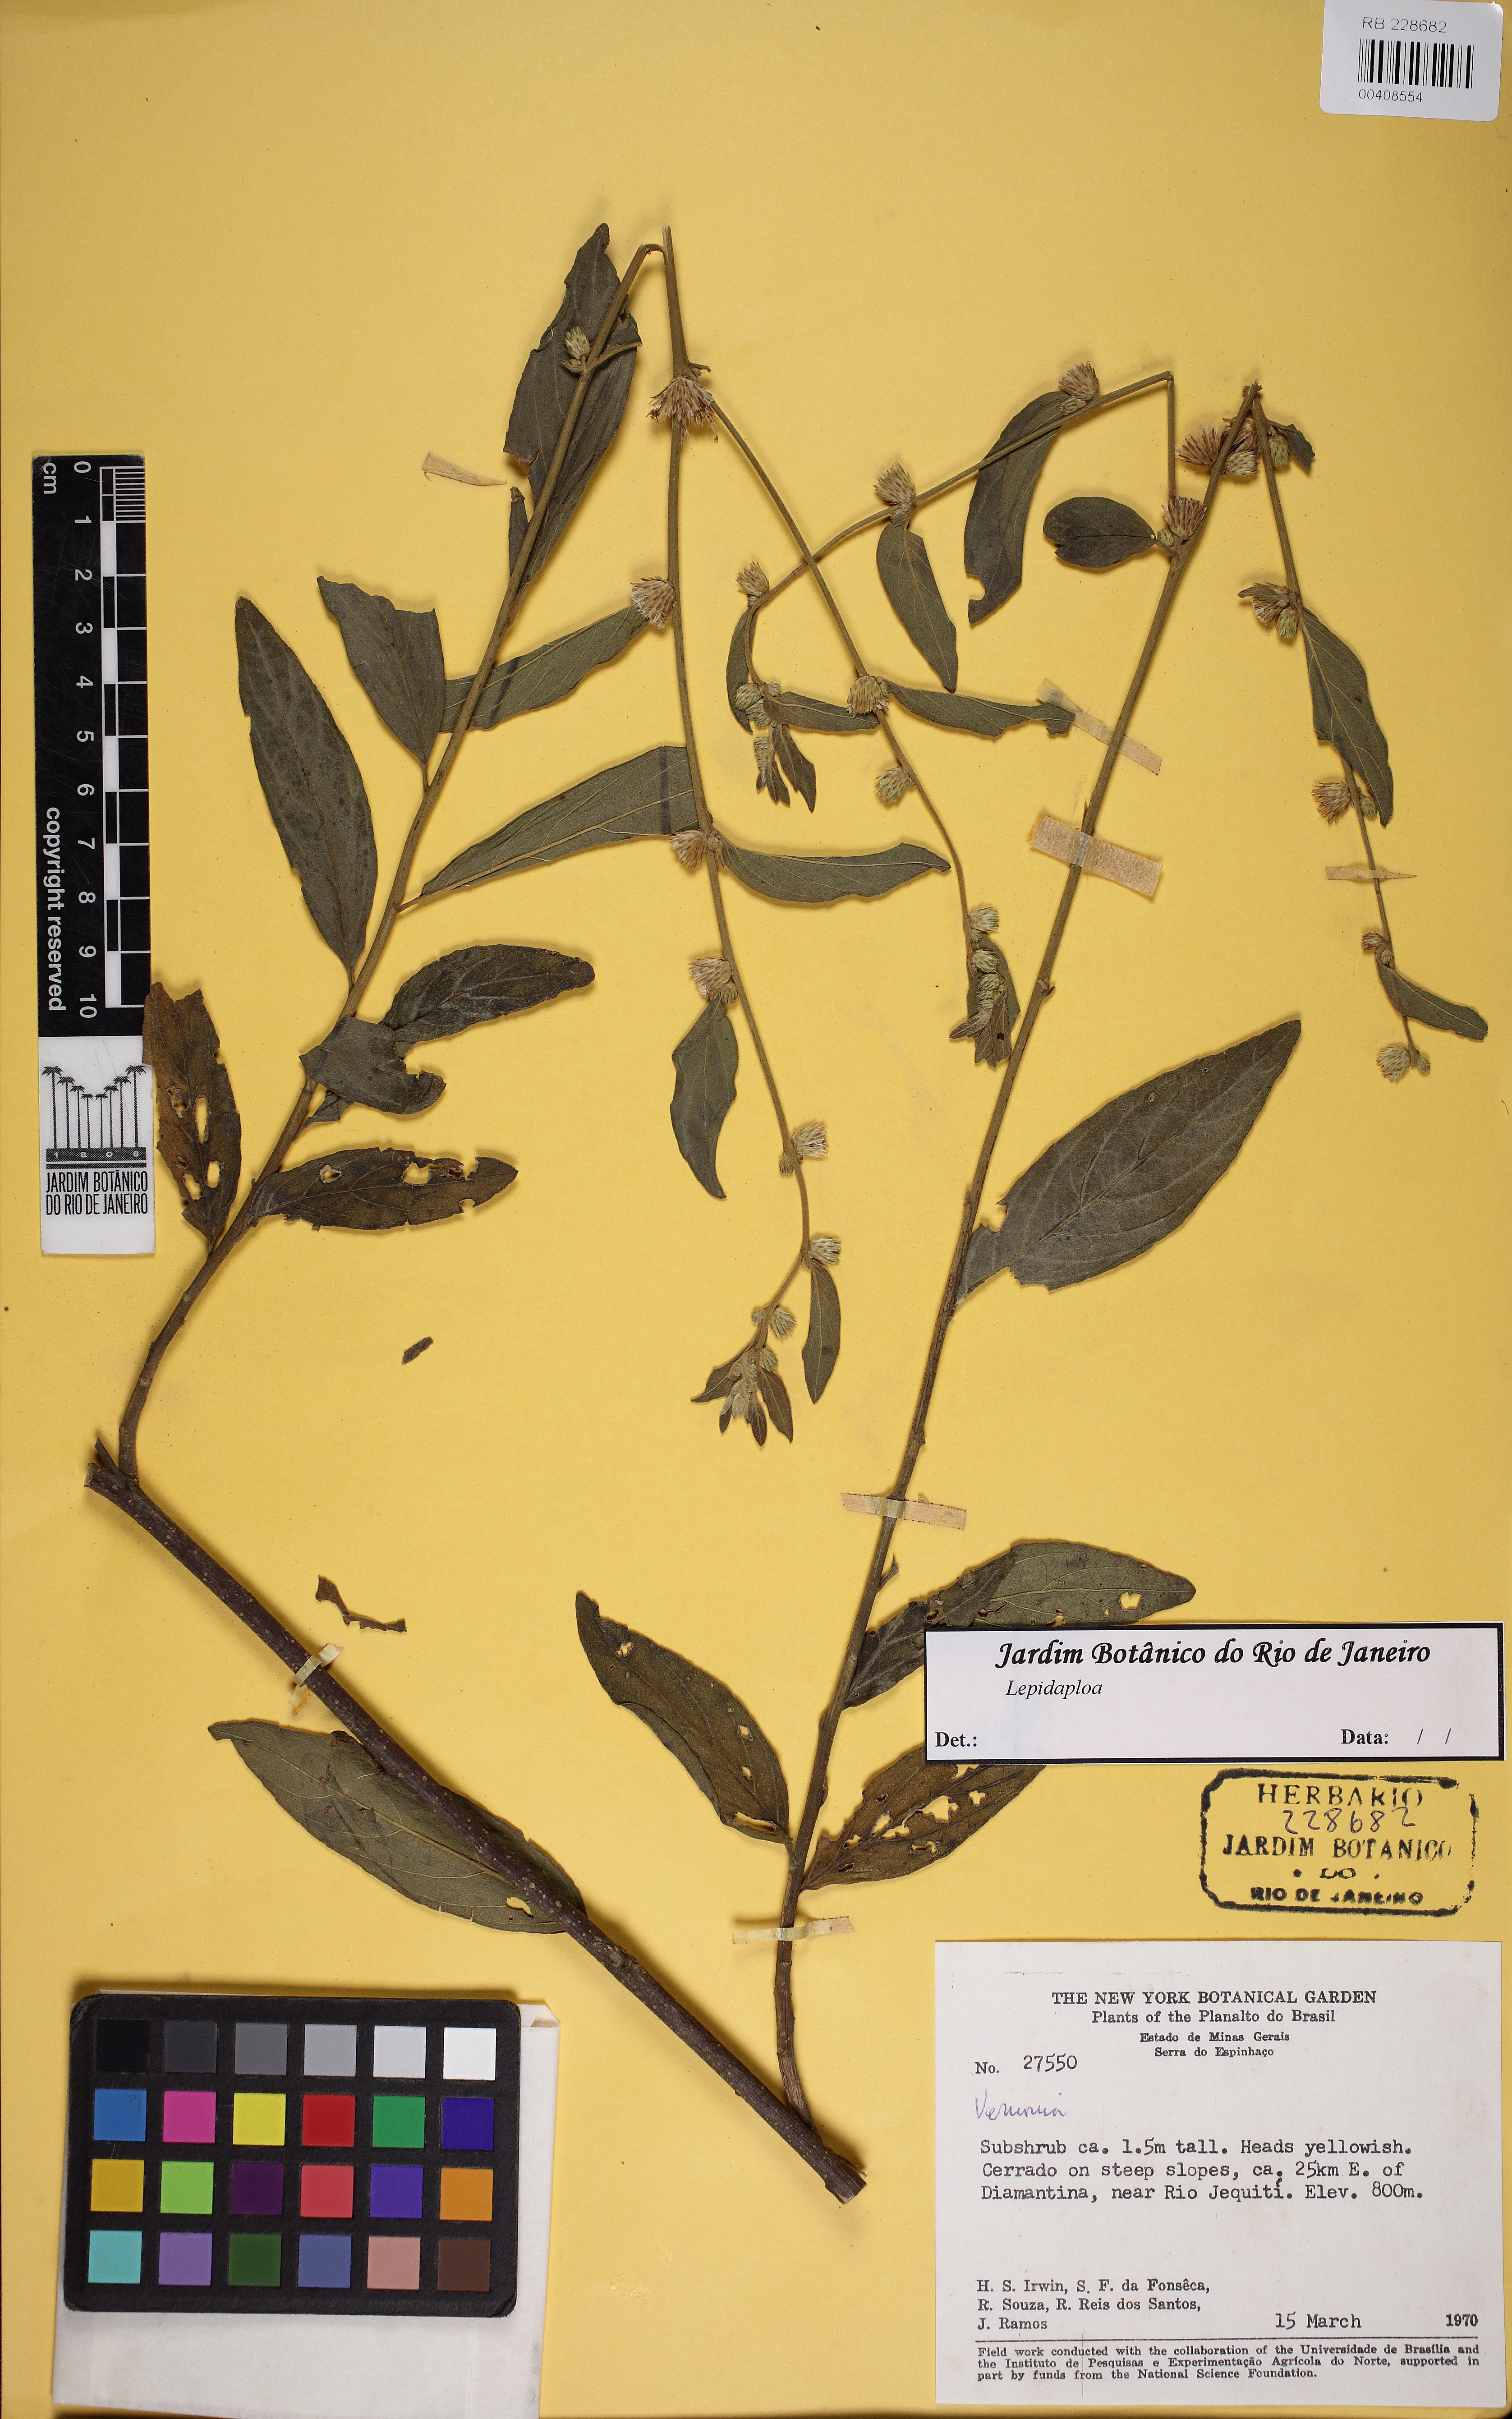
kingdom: Plantae
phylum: Tracheophyta
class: Magnoliopsida
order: Asterales
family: Asteraceae
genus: Lepidaploa
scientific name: Lepidaploa
